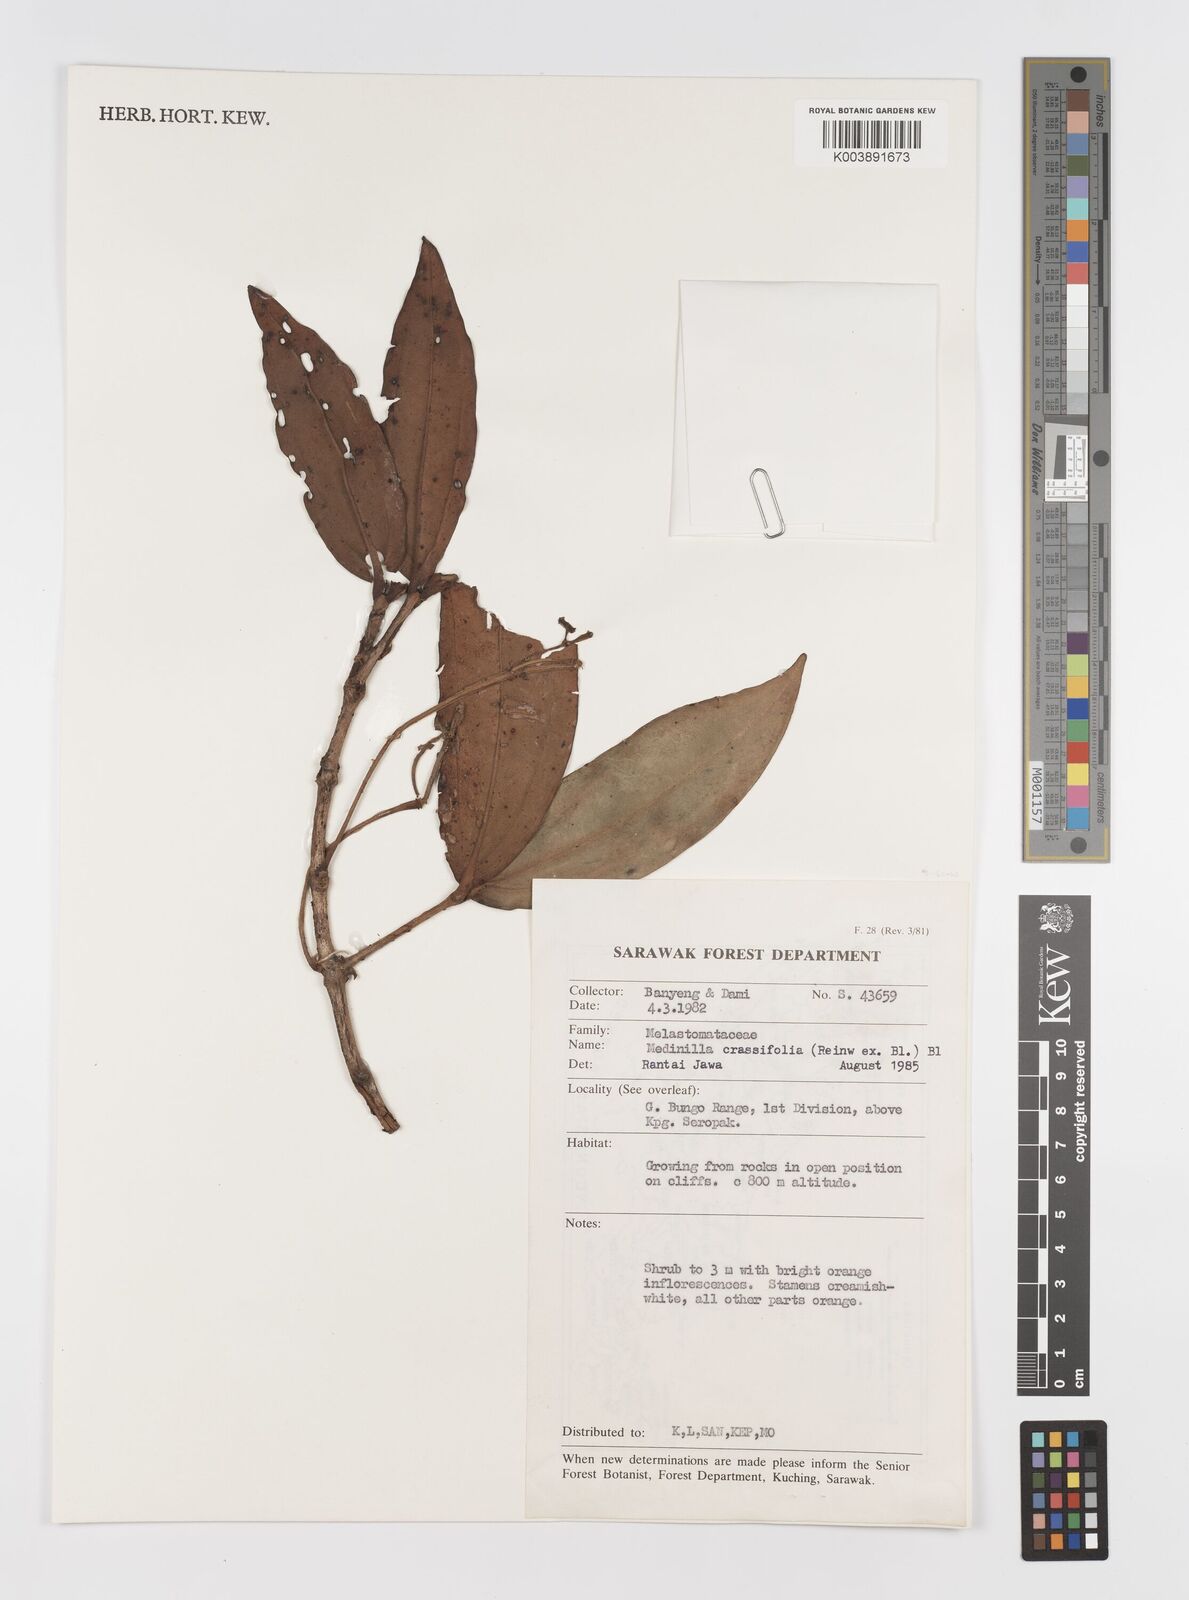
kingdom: Plantae
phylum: Tracheophyta
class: Magnoliopsida
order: Myrtales
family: Melastomataceae
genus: Medinilla
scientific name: Medinilla crassifolia
